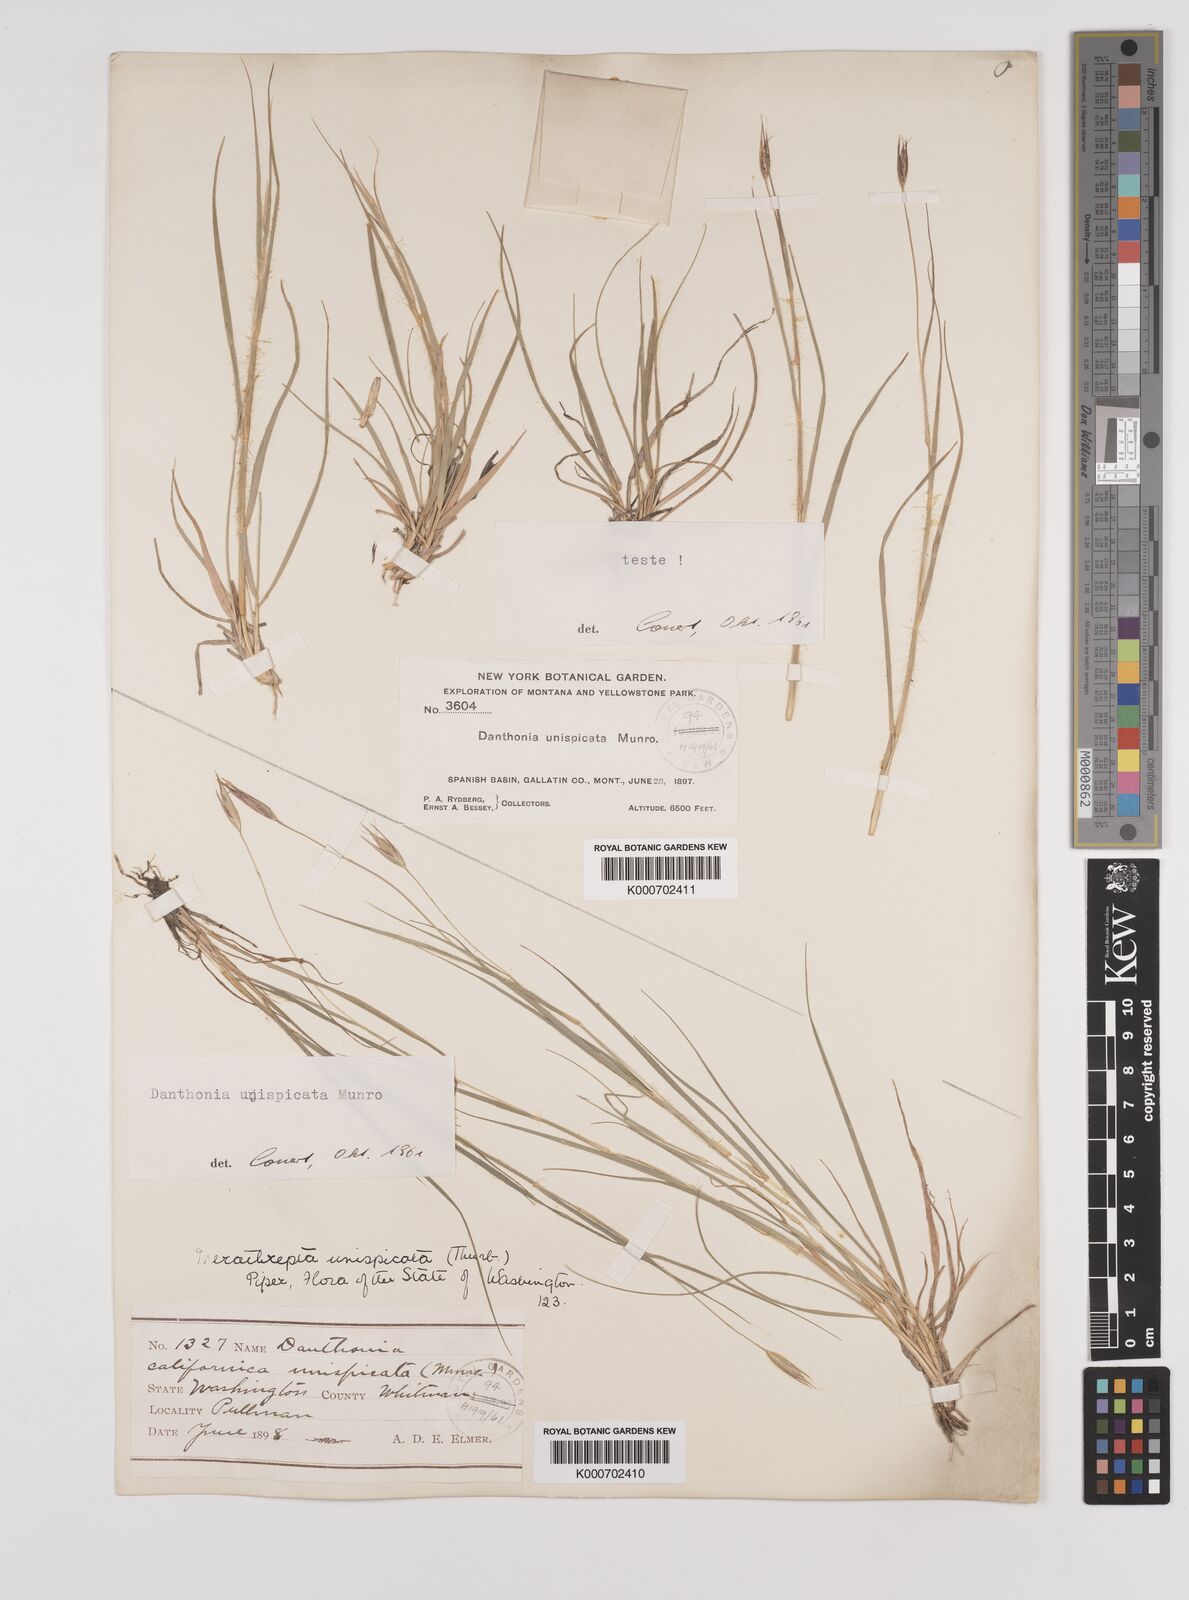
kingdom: Plantae
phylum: Tracheophyta
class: Liliopsida
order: Poales
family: Poaceae
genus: Danthonia
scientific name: Danthonia unispicata
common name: Few-flowered oatgrass
